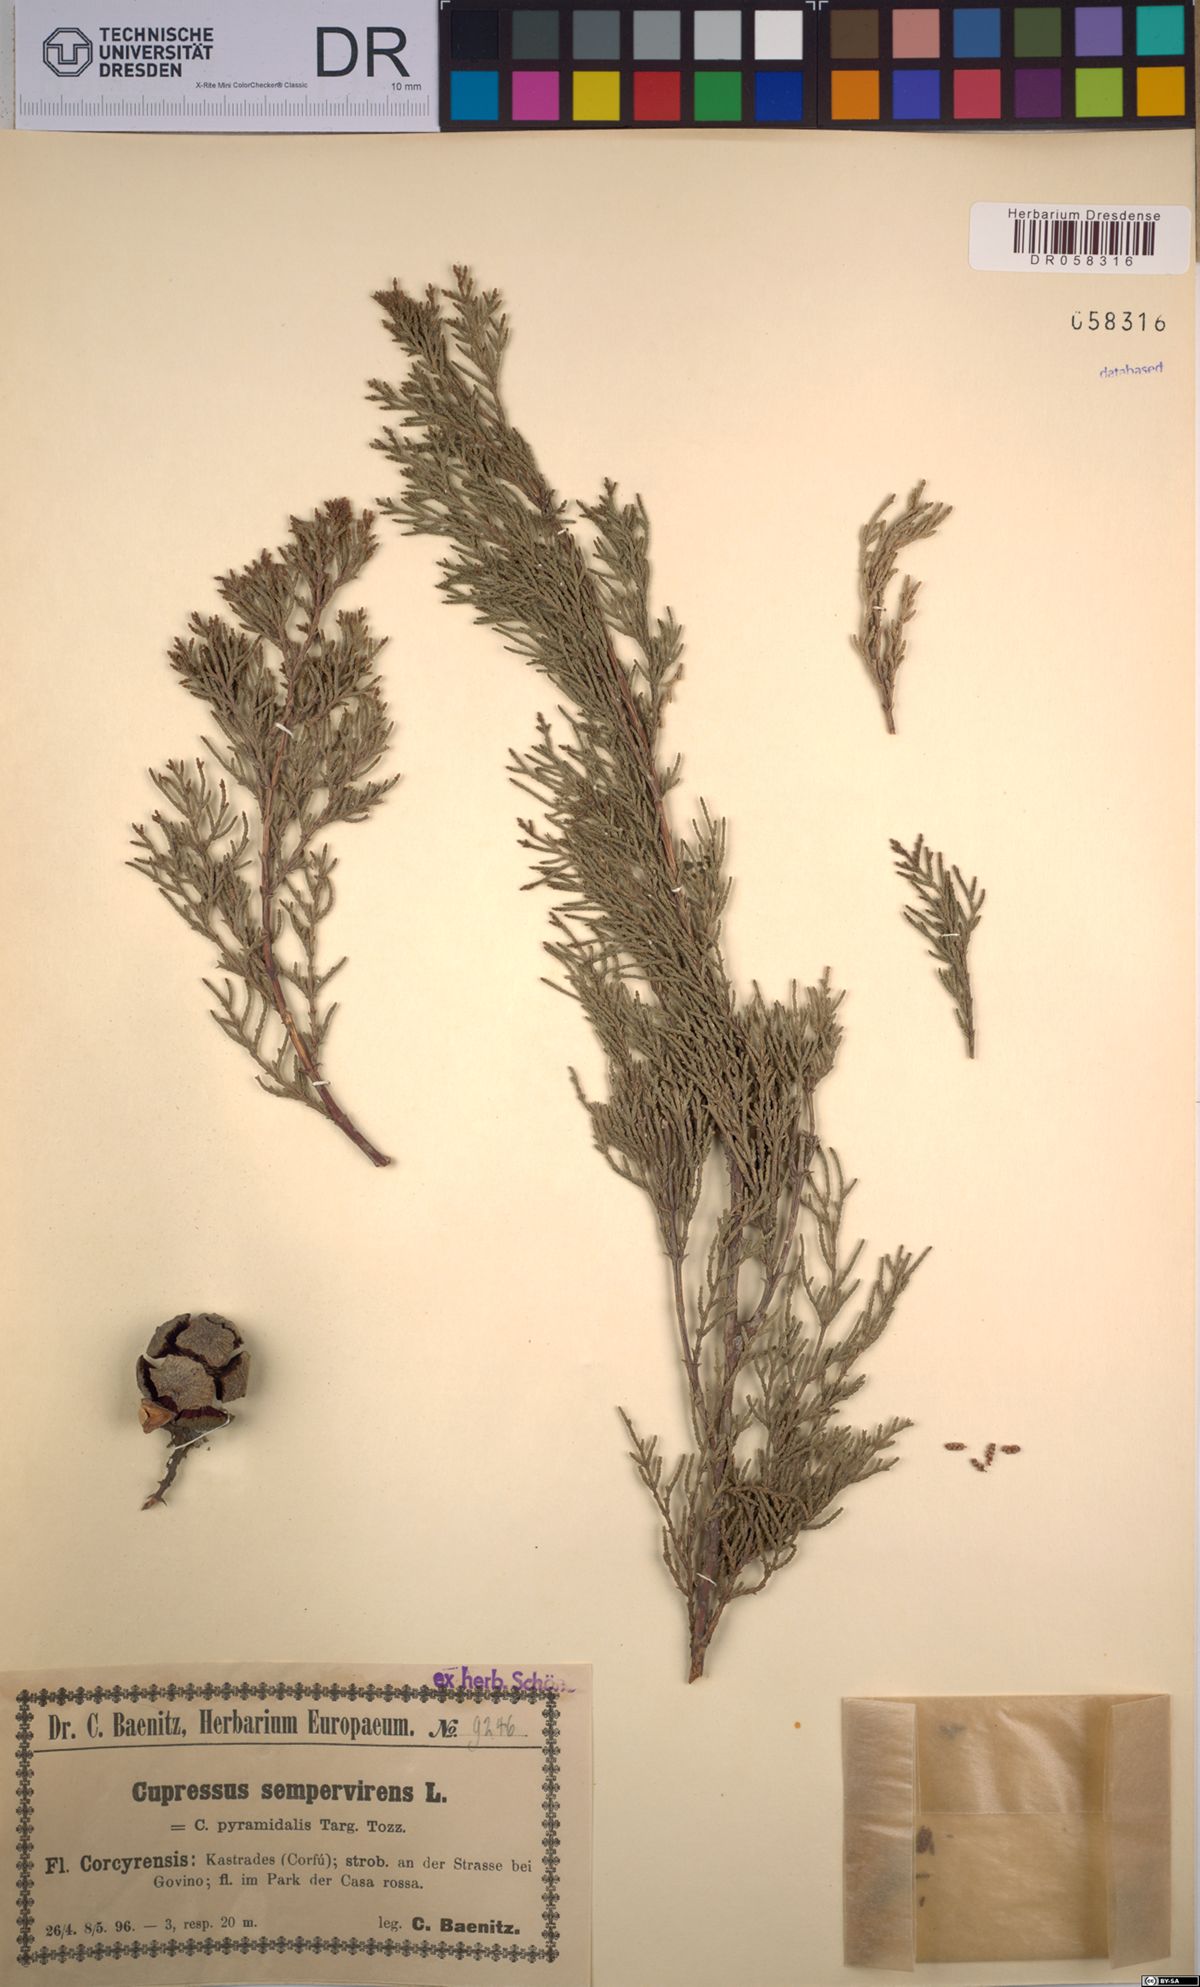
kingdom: Plantae
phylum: Tracheophyta
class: Pinopsida
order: Pinales
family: Cupressaceae
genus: Cupressus
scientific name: Cupressus sempervirens
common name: Italian cypress
